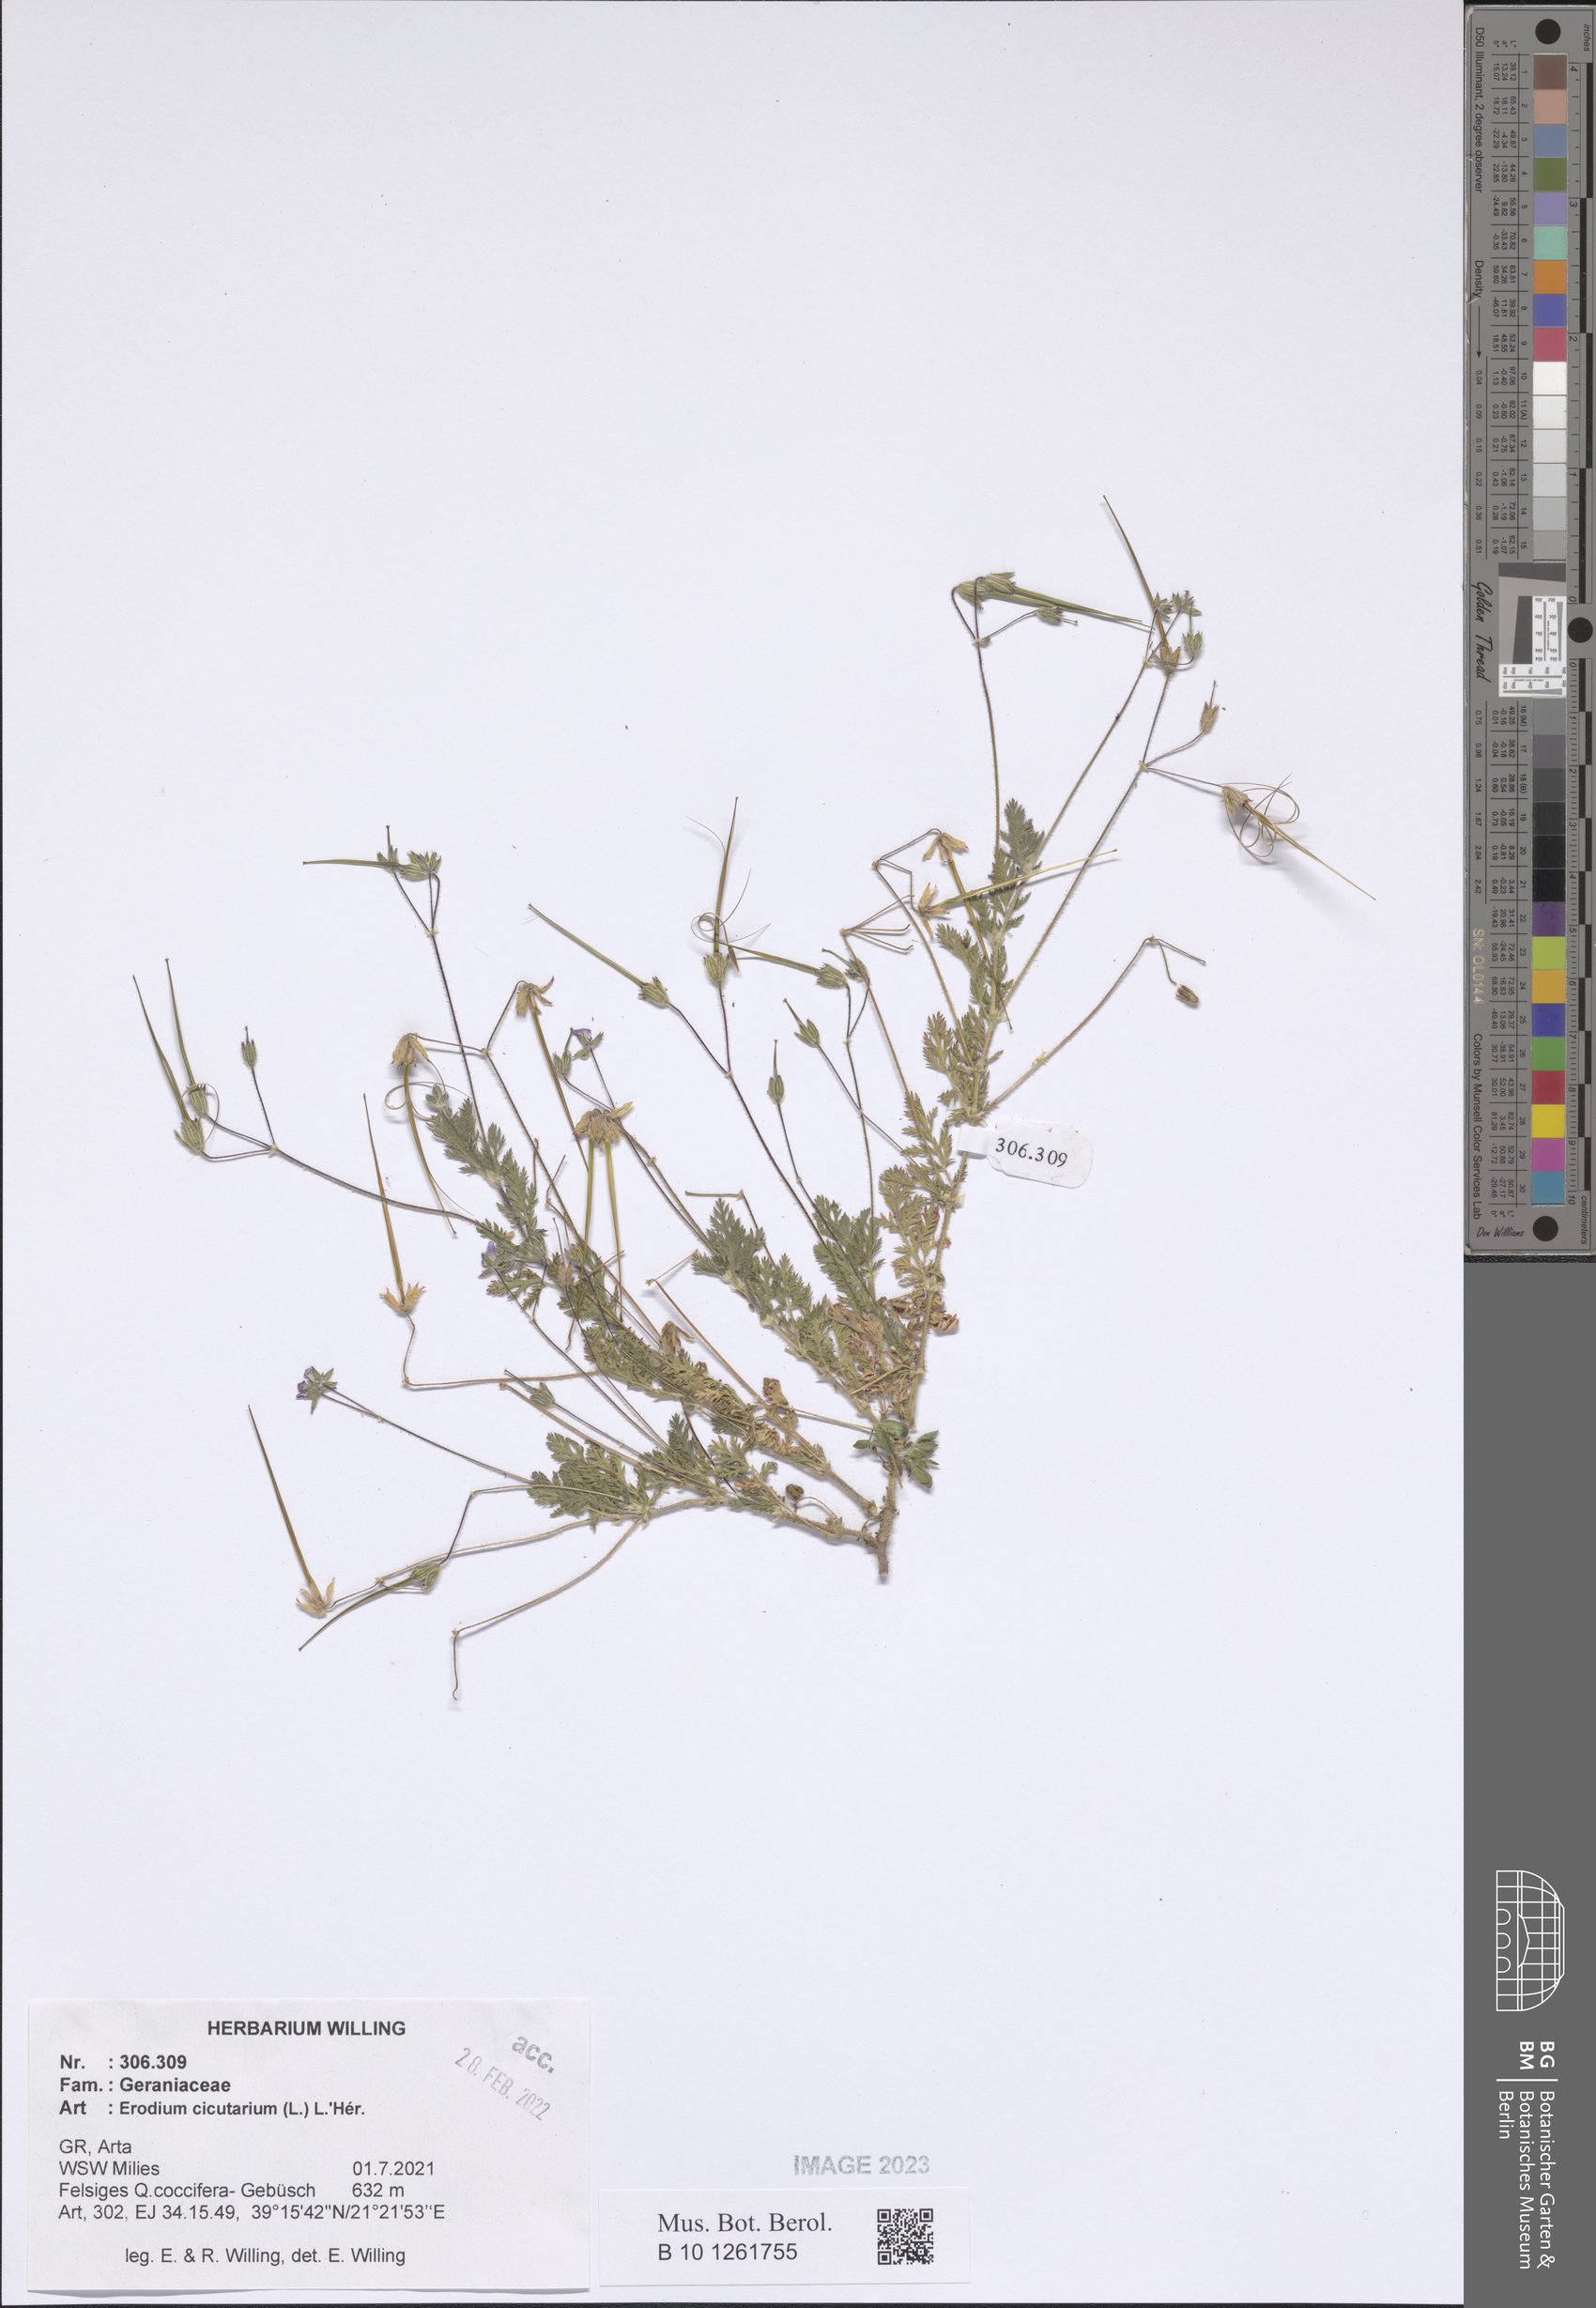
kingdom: Plantae
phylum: Tracheophyta
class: Magnoliopsida
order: Geraniales
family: Geraniaceae
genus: Erodium
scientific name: Erodium cicutarium
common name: Common stork's-bill
